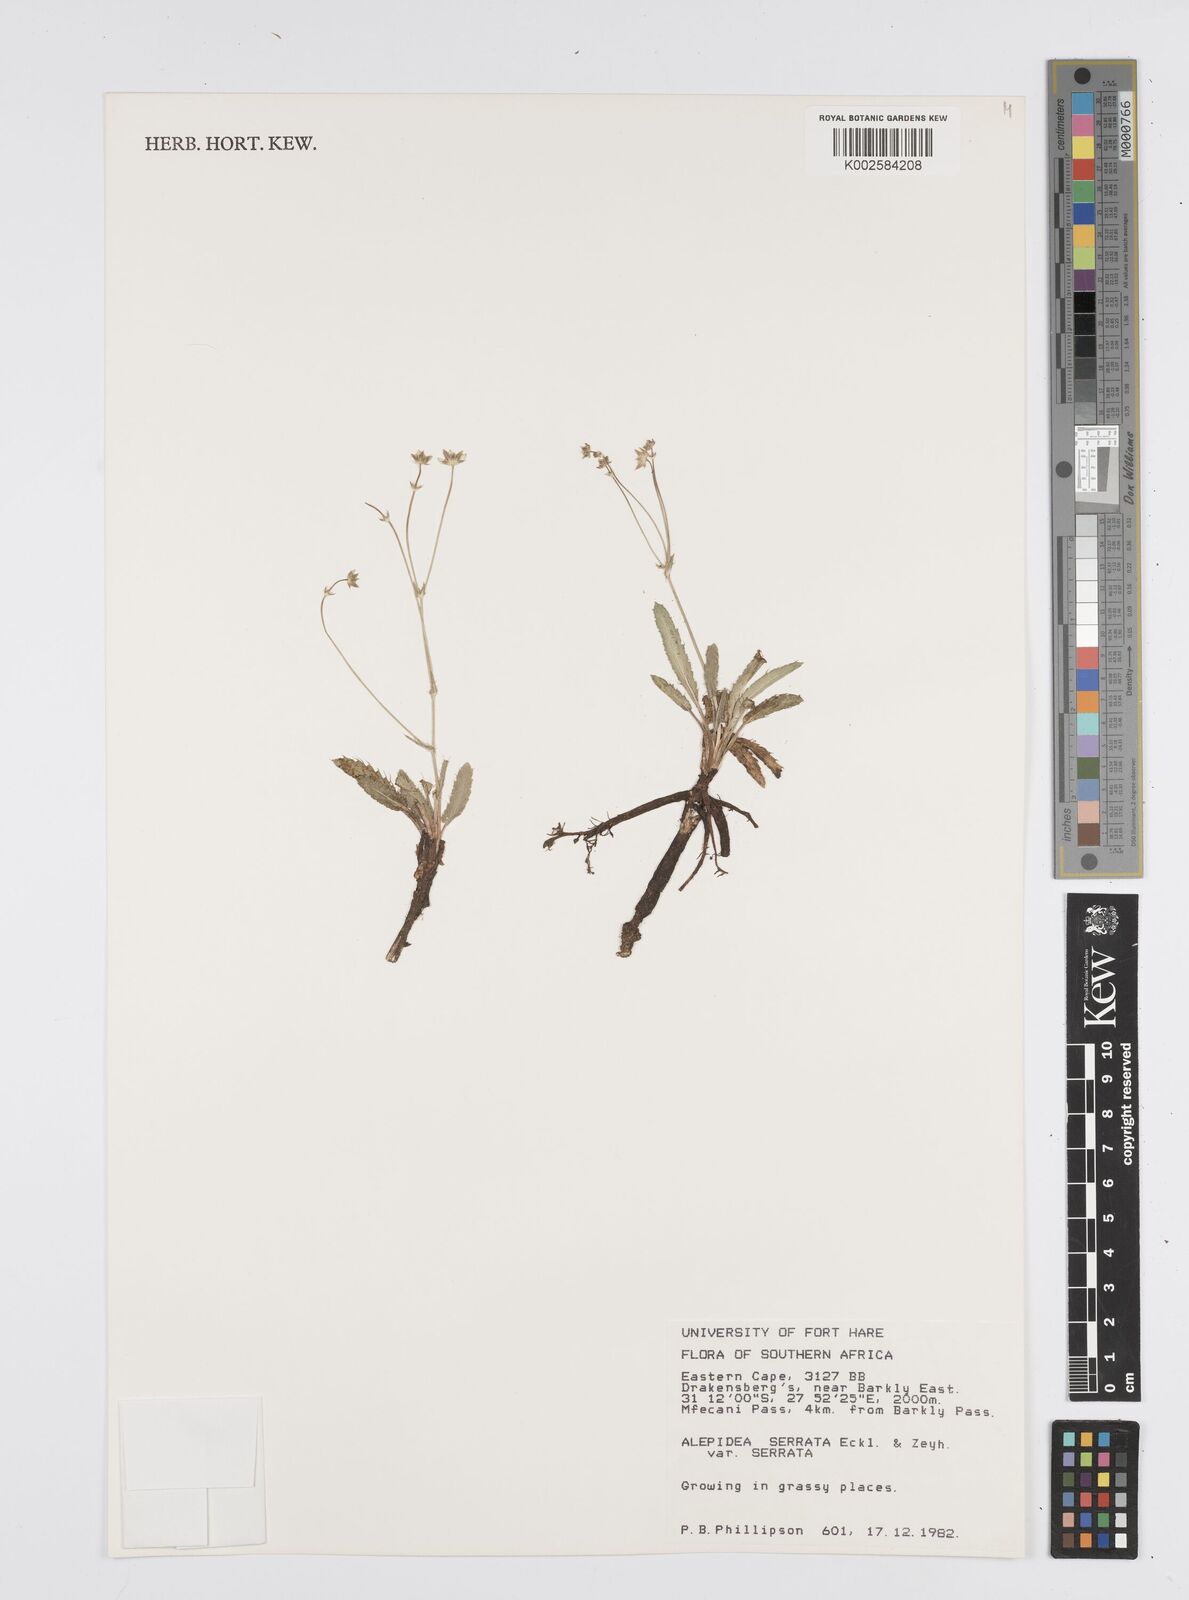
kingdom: Plantae
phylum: Tracheophyta
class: Magnoliopsida
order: Apiales
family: Apiaceae
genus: Alepidea
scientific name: Alepidea serrata
